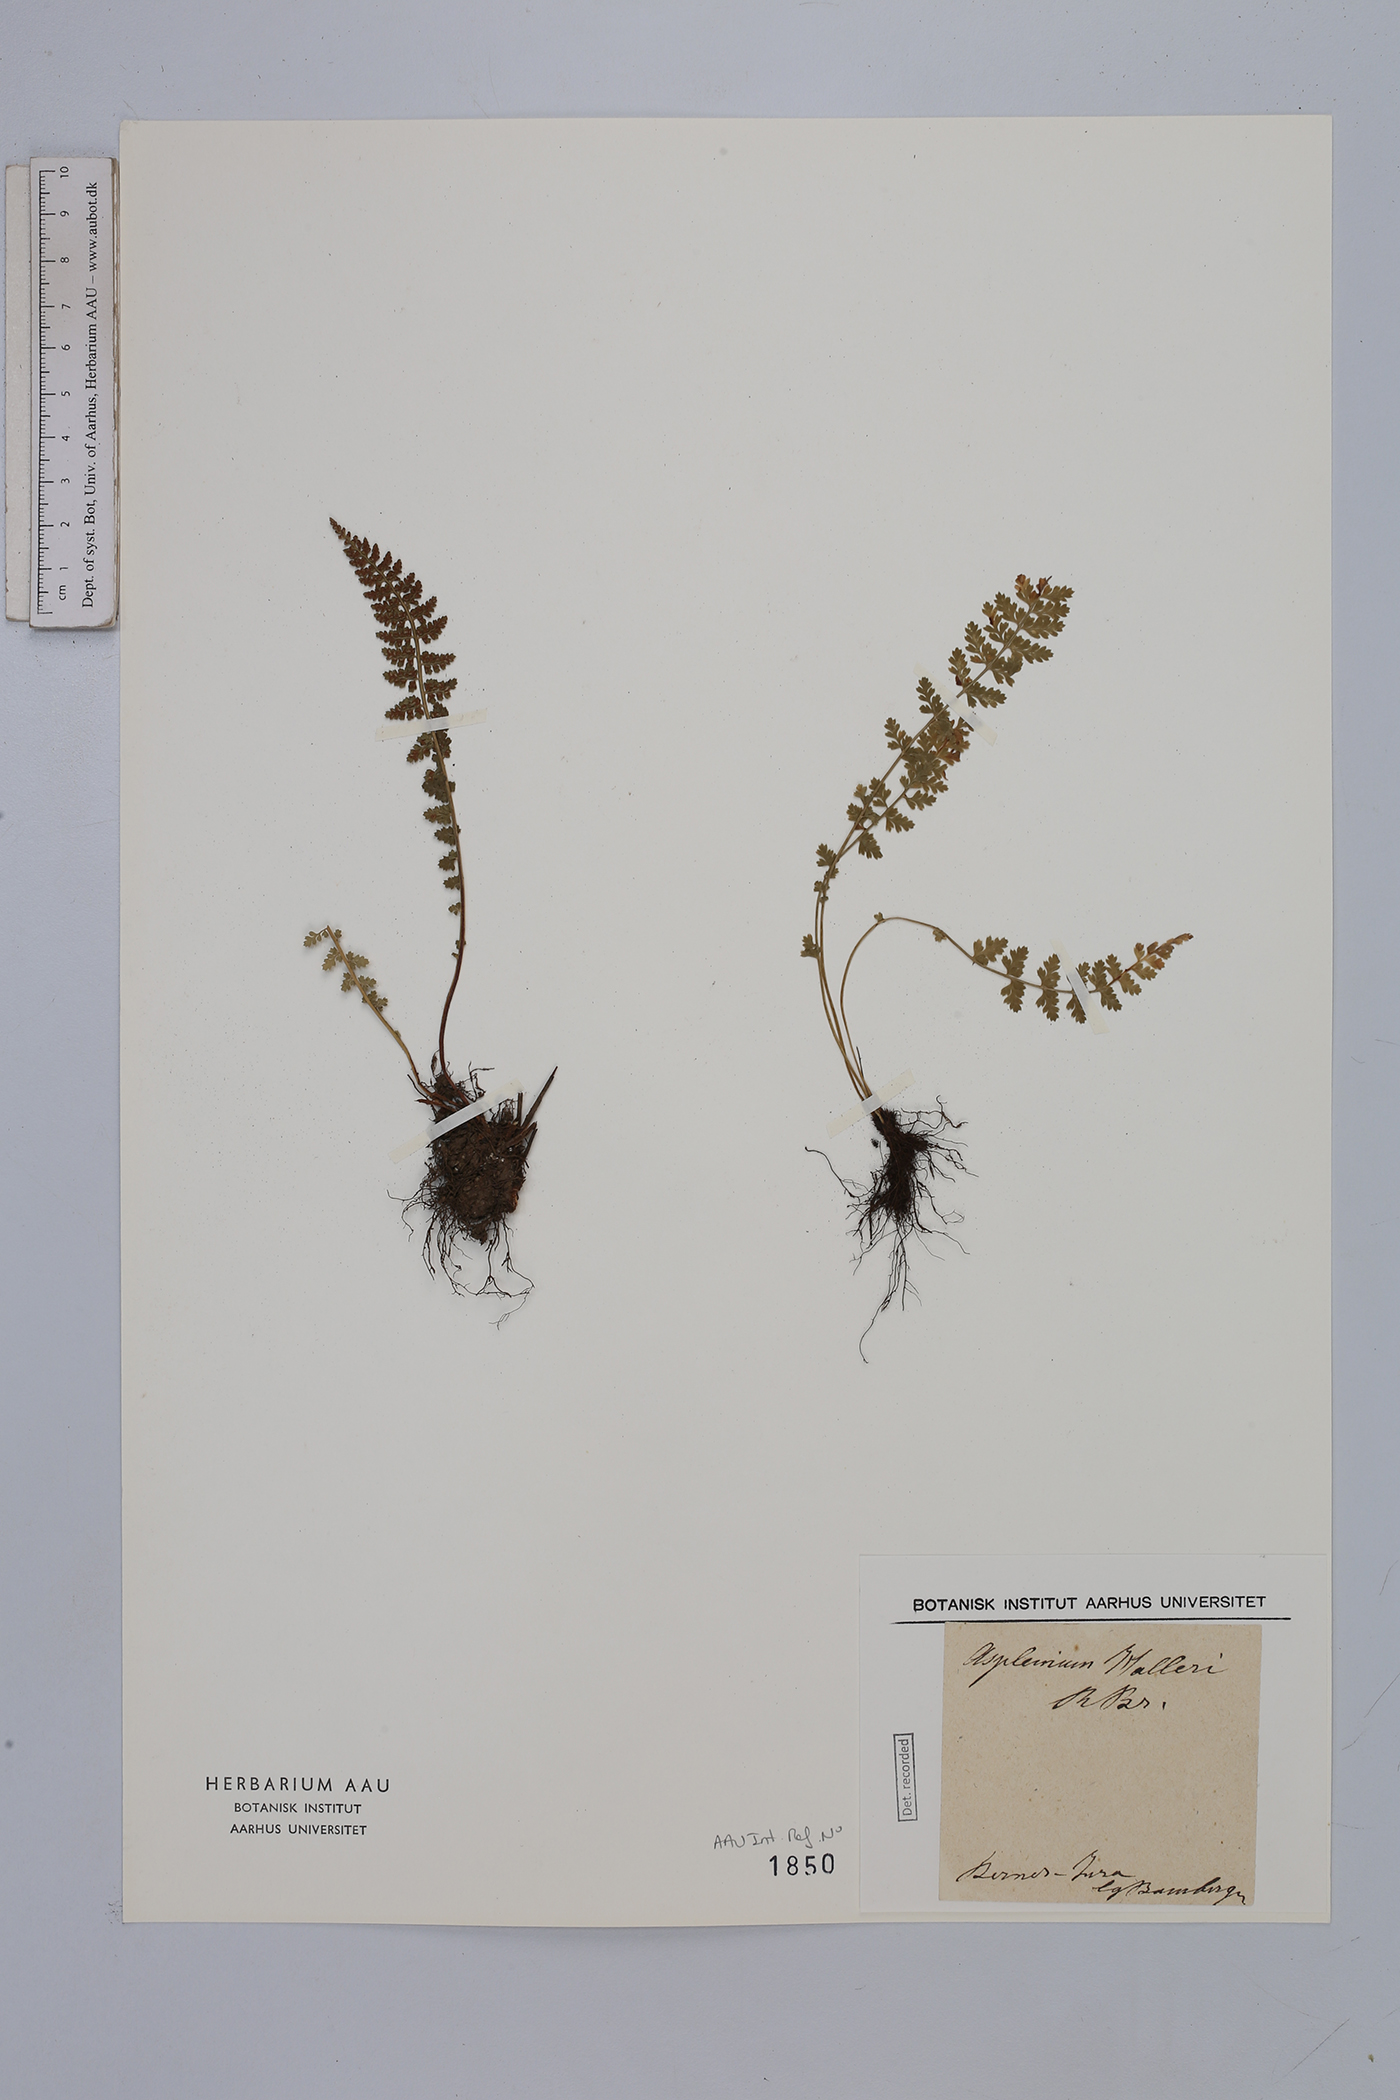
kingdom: Plantae
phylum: Tracheophyta
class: Polypodiopsida
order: Polypodiales
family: Aspleniaceae
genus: Asplenium
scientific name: Asplenium fontanum
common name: Fountain spleenwort
